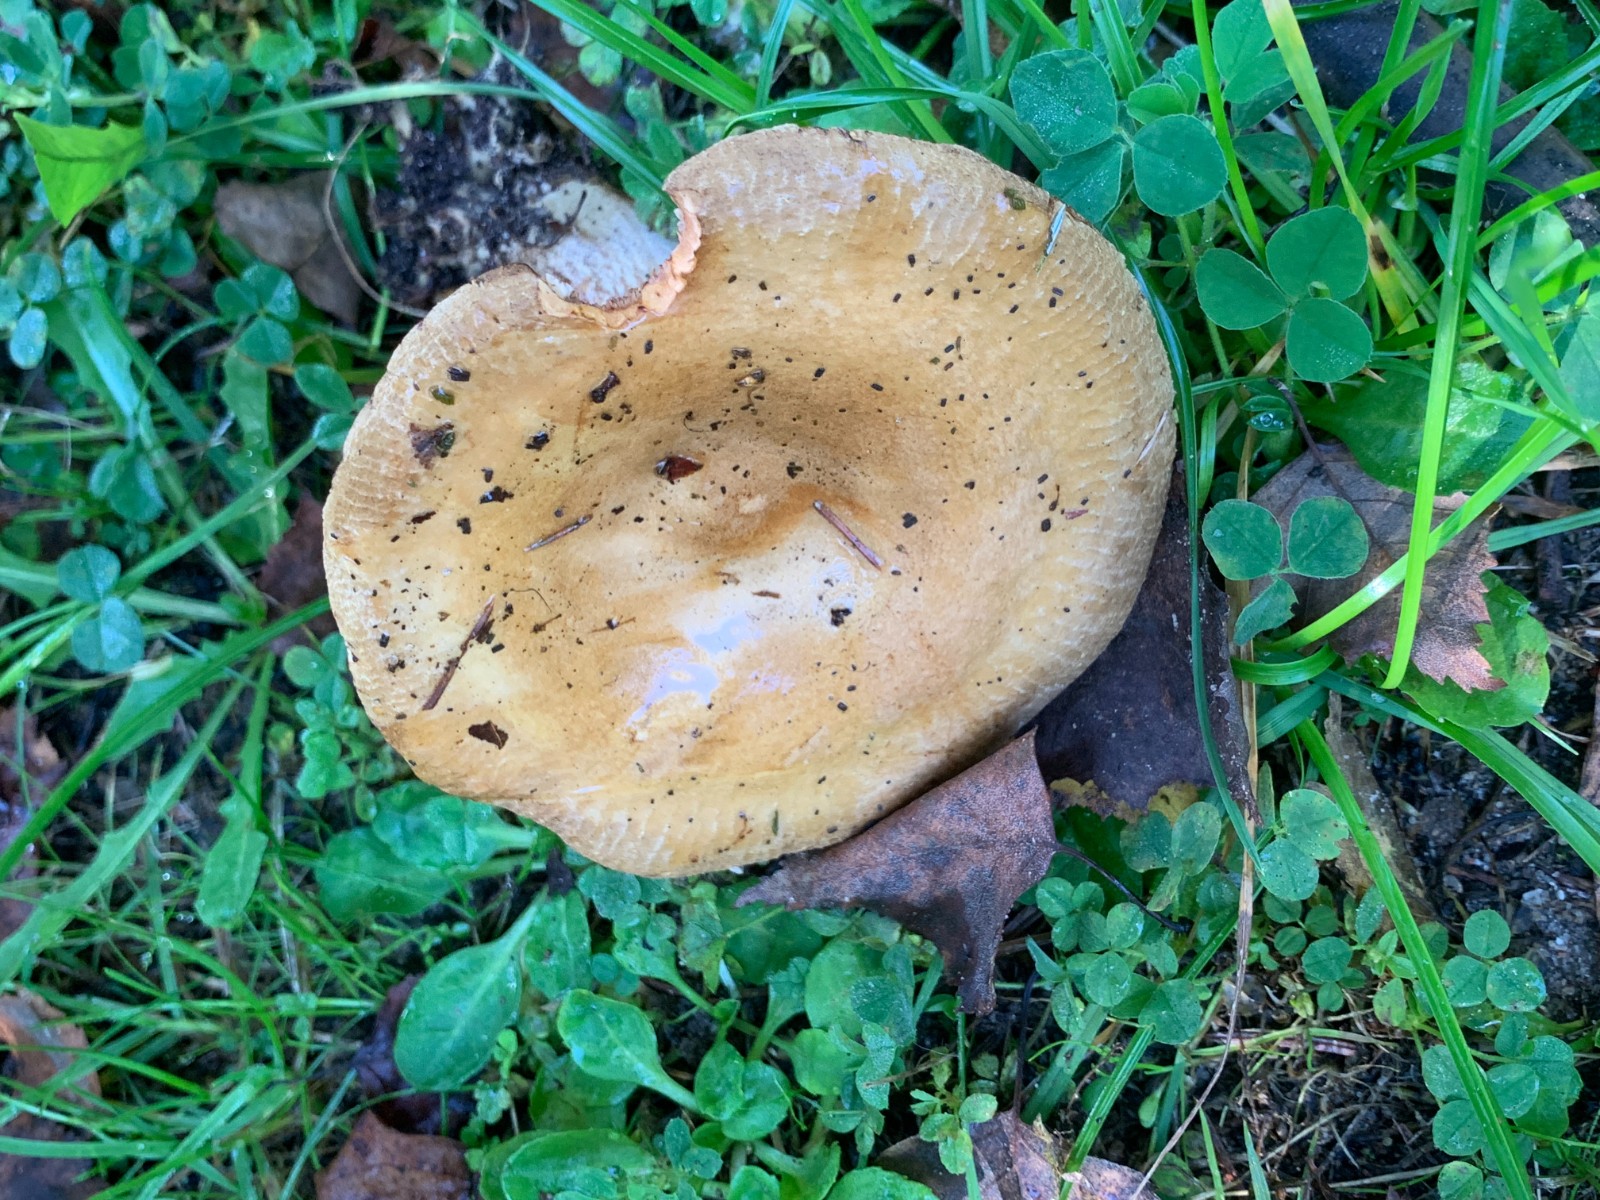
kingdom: Fungi
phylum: Basidiomycota
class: Agaricomycetes
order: Boletales
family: Paxillaceae
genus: Paxillus
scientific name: Paxillus involutus
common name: almindelig netbladhat
